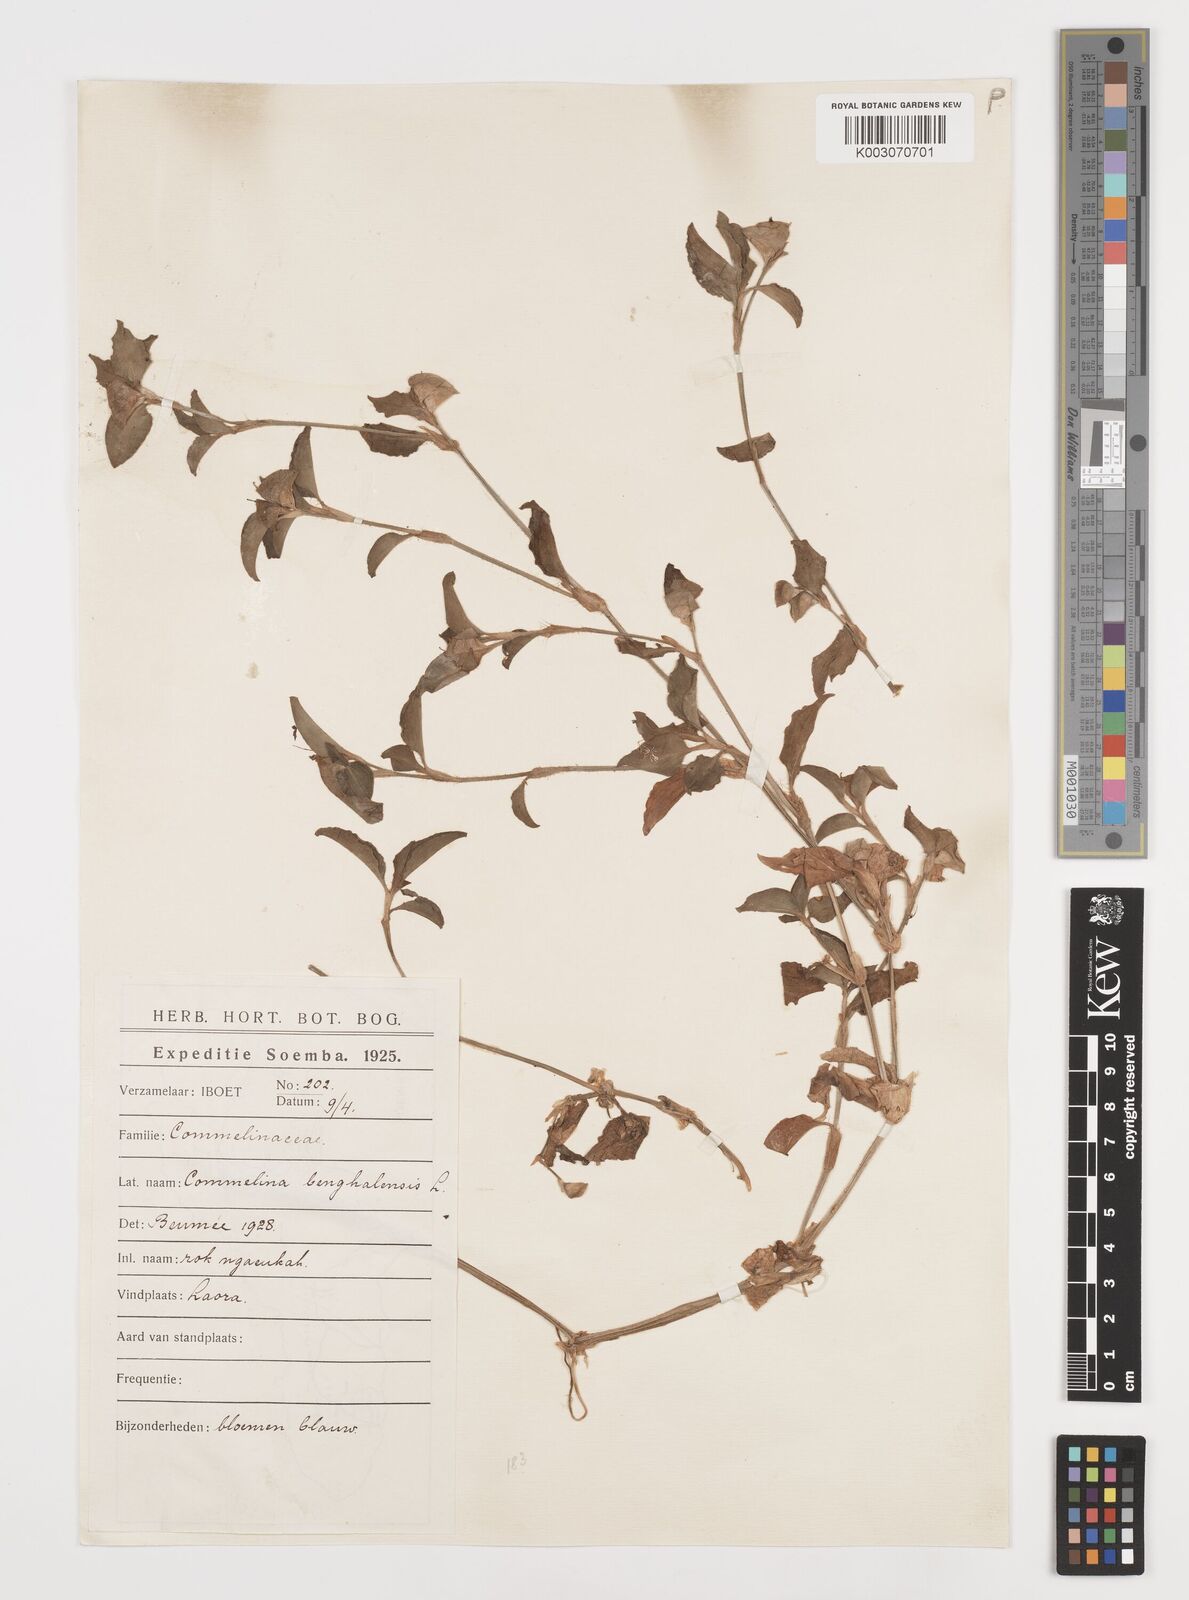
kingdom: Plantae
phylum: Tracheophyta
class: Liliopsida
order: Commelinales
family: Commelinaceae
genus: Commelina
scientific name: Commelina benghalensis
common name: Jio
